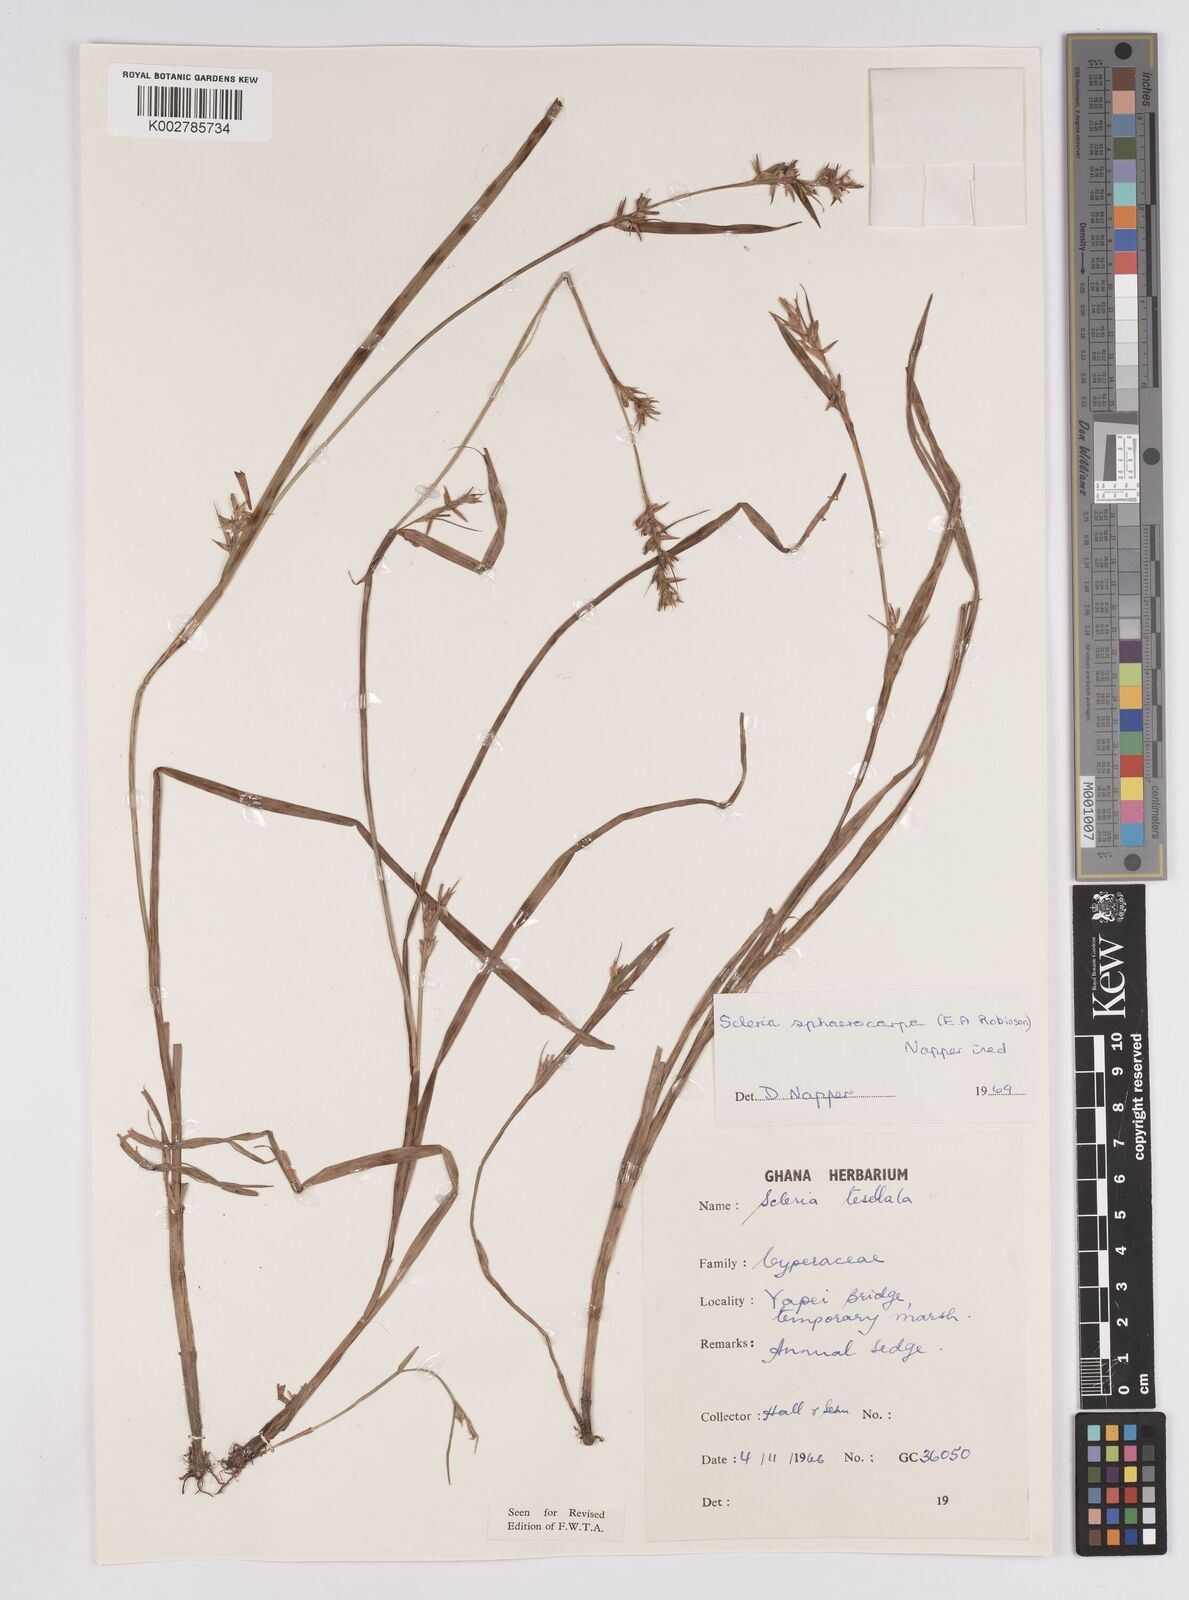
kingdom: Plantae
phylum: Tracheophyta
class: Liliopsida
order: Poales
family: Cyperaceae
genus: Scleria
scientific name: Scleria tessellata
